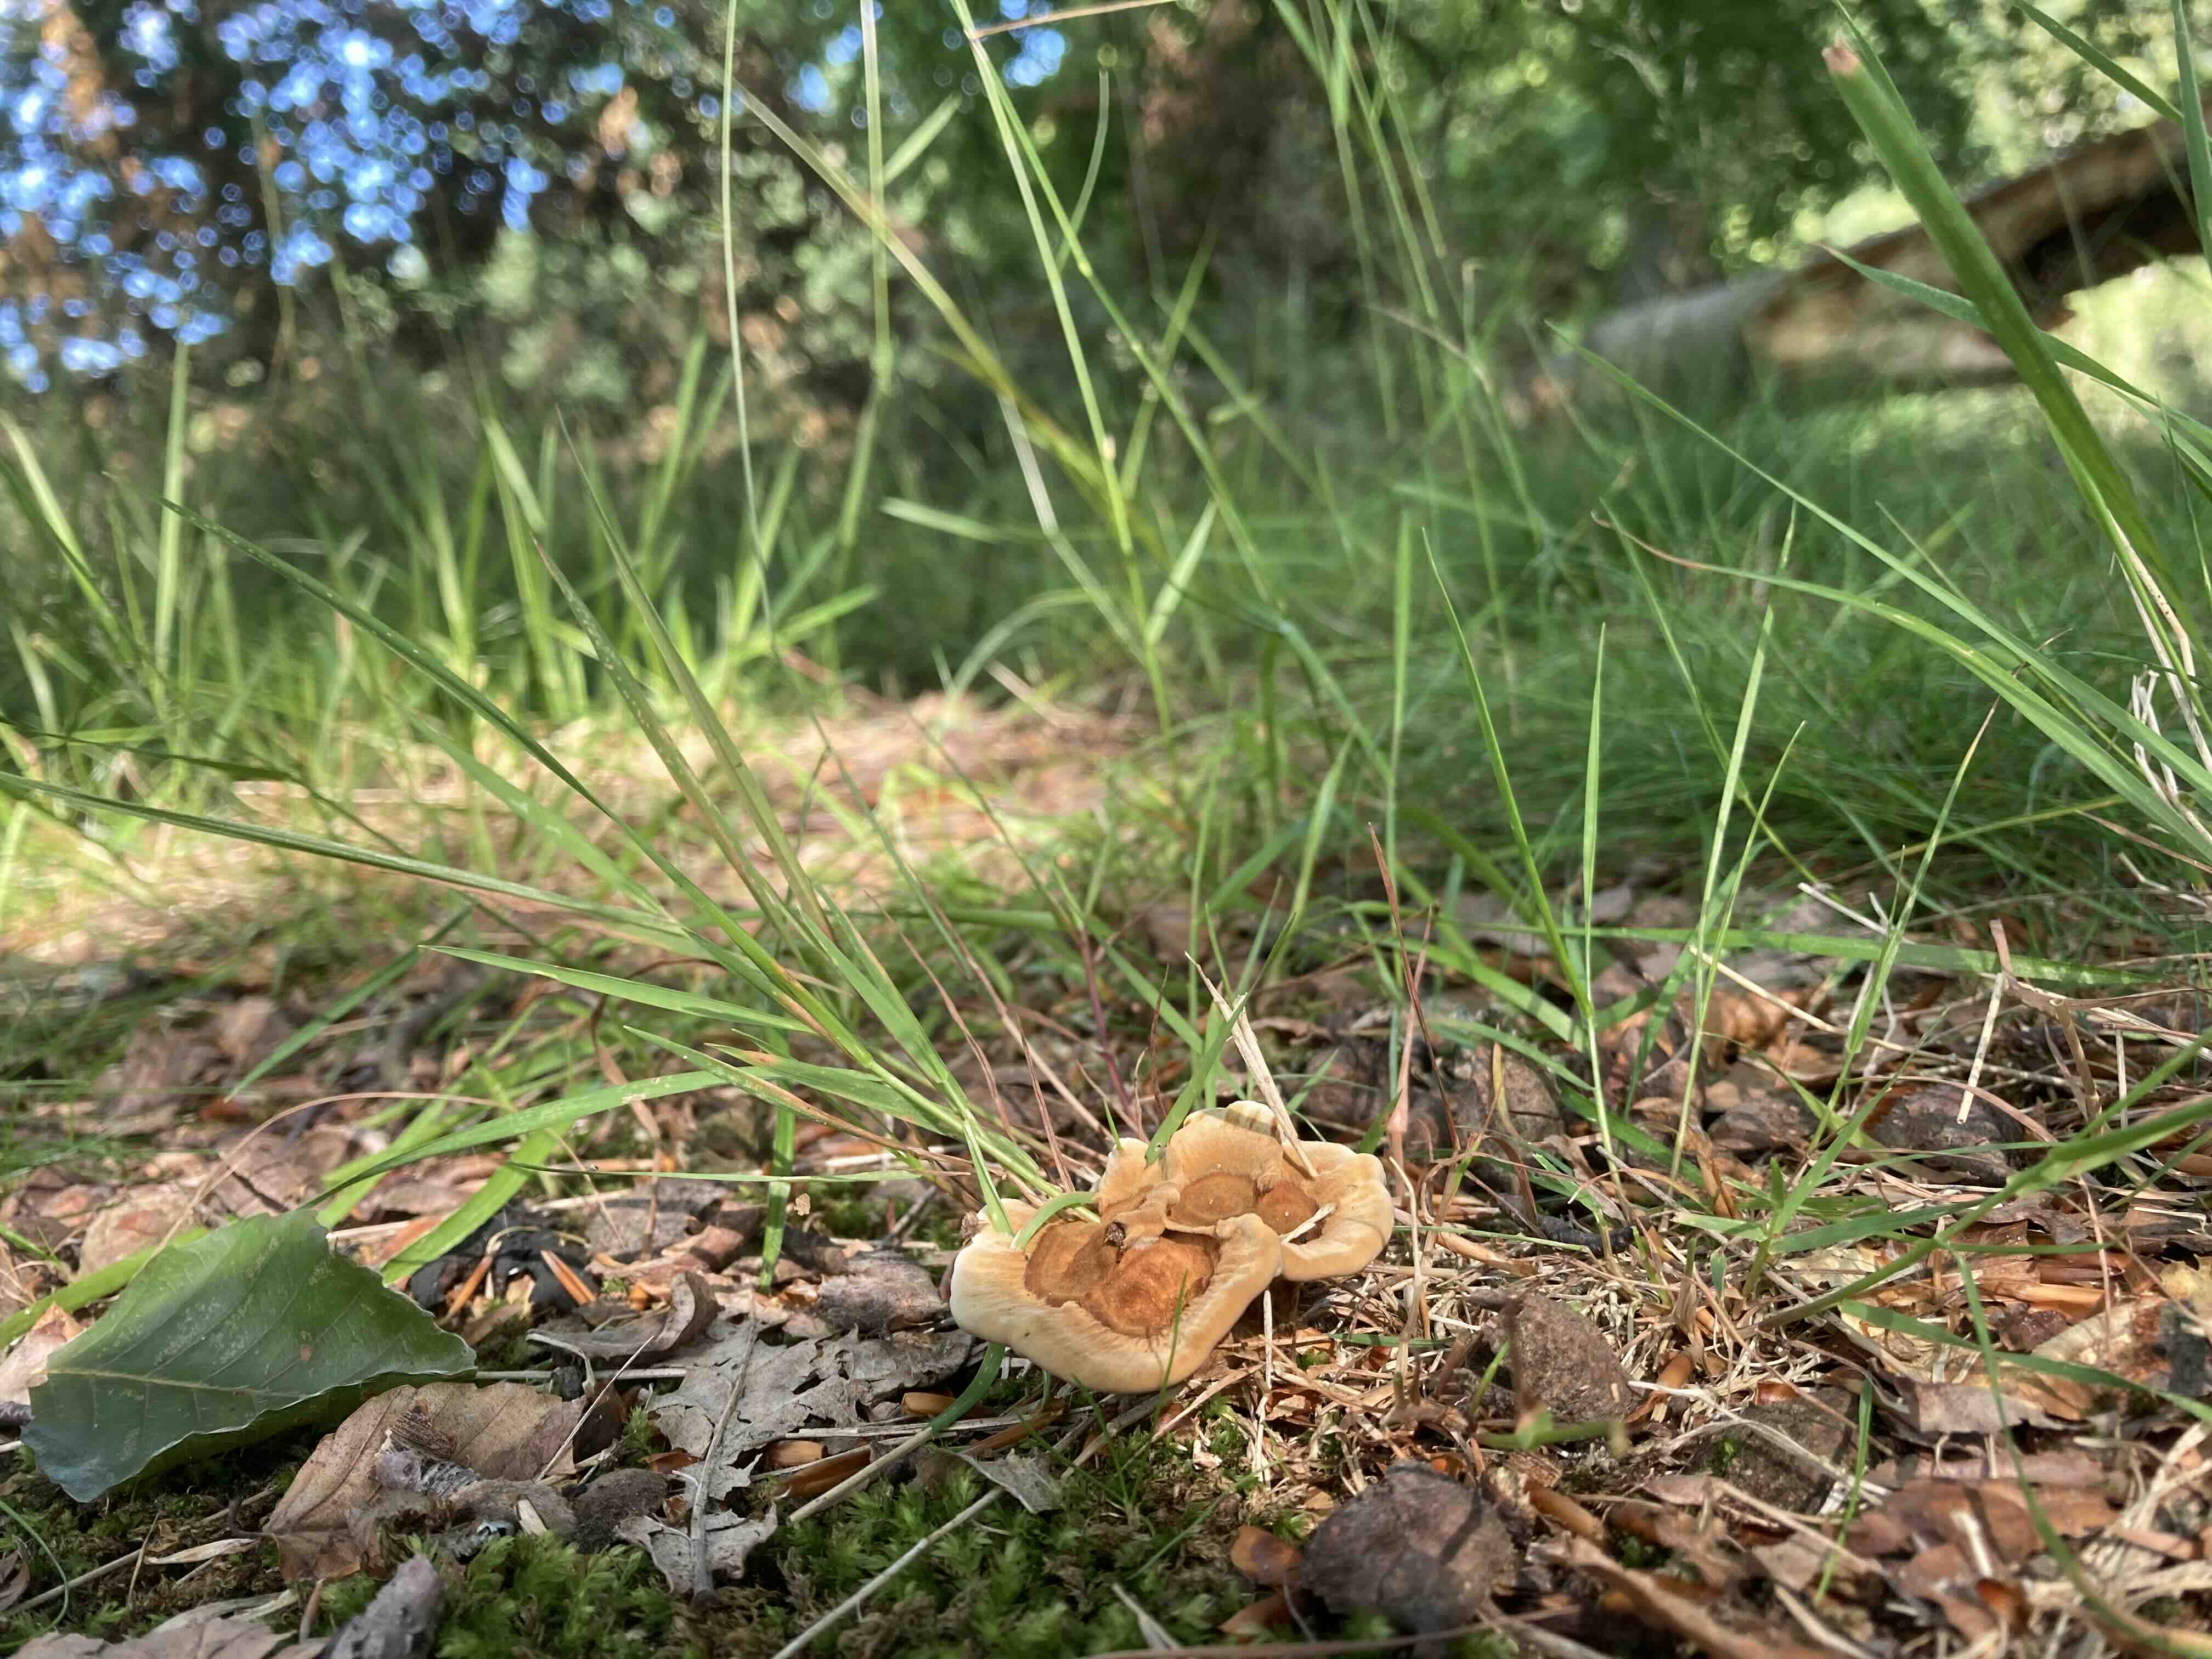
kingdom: Fungi
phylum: Basidiomycota
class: Agaricomycetes
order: Hymenochaetales
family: Hymenochaetaceae
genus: Coltricia
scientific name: Coltricia confluens
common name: park-sandporesvamp
